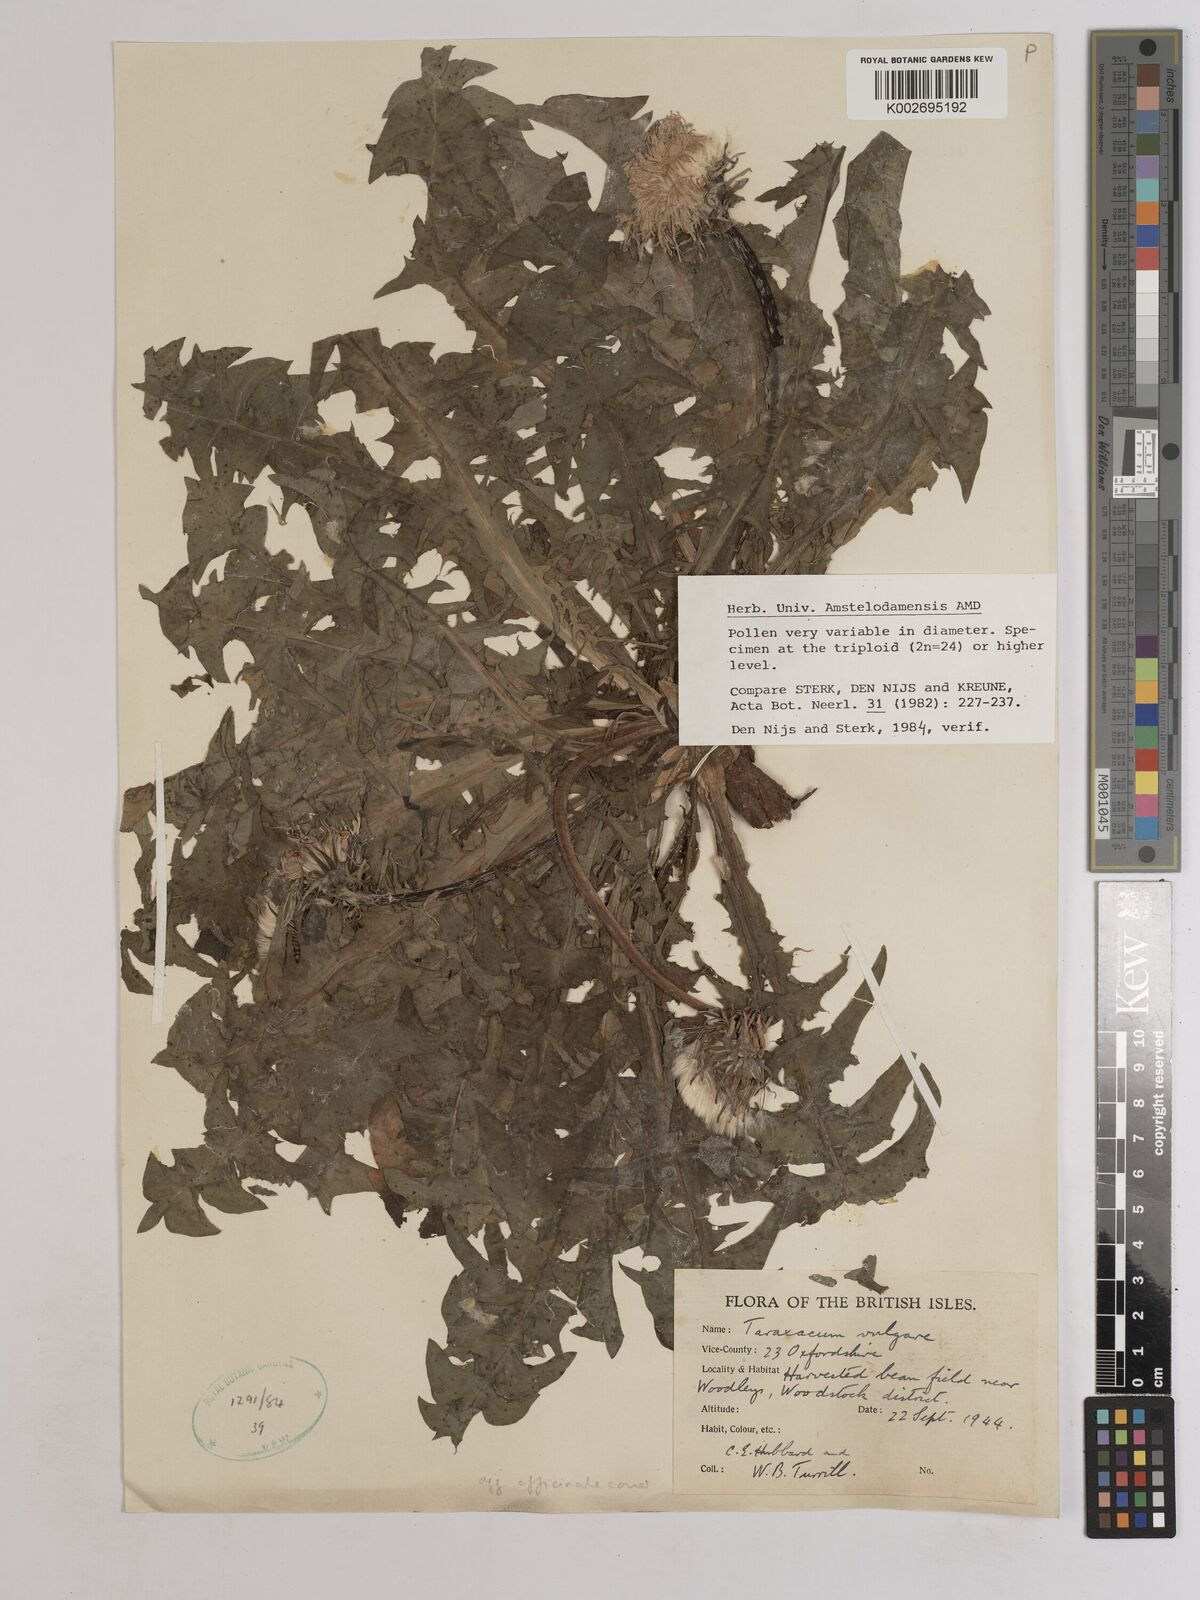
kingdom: Plantae
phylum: Tracheophyta
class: Magnoliopsida
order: Asterales
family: Asteraceae
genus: Taraxacum
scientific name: Taraxacum officinale
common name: Common dandelion
